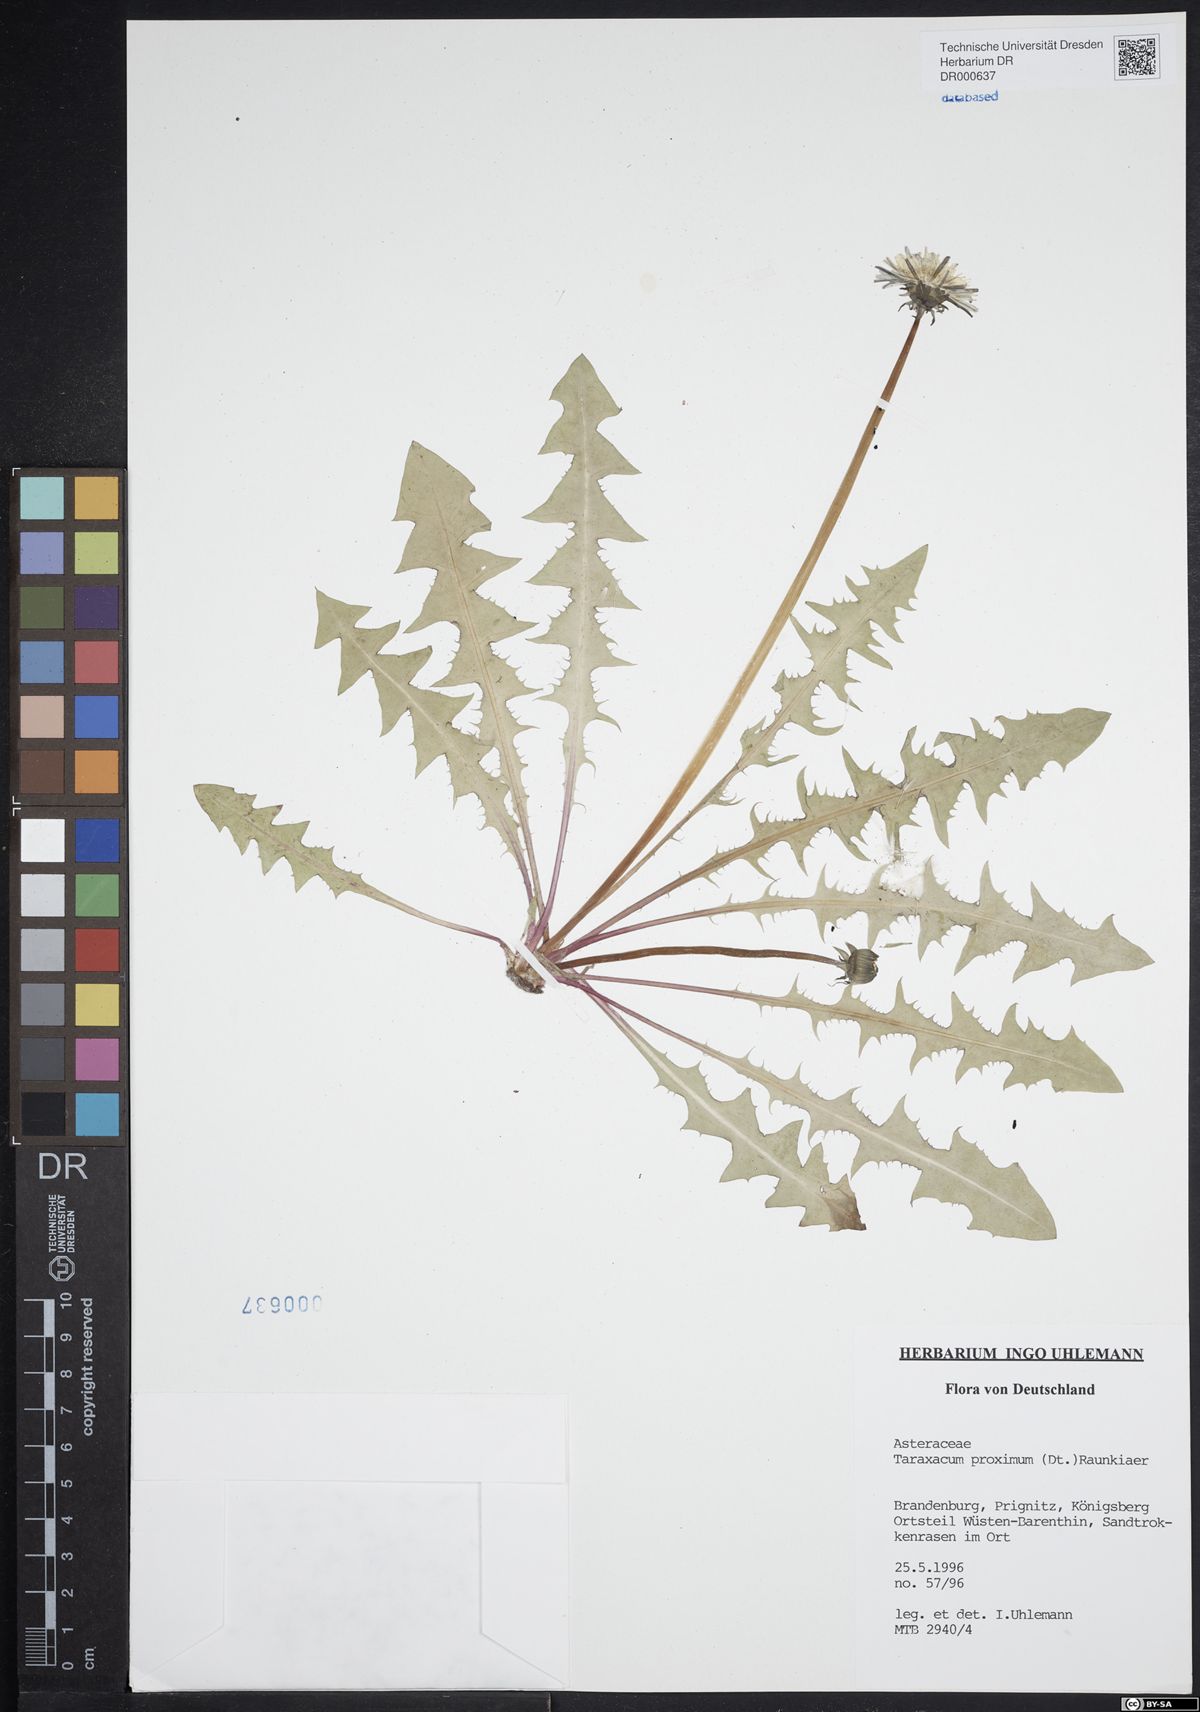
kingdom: Plantae
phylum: Tracheophyta
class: Magnoliopsida
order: Asterales
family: Asteraceae
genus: Taraxacum
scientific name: Taraxacum proximum
